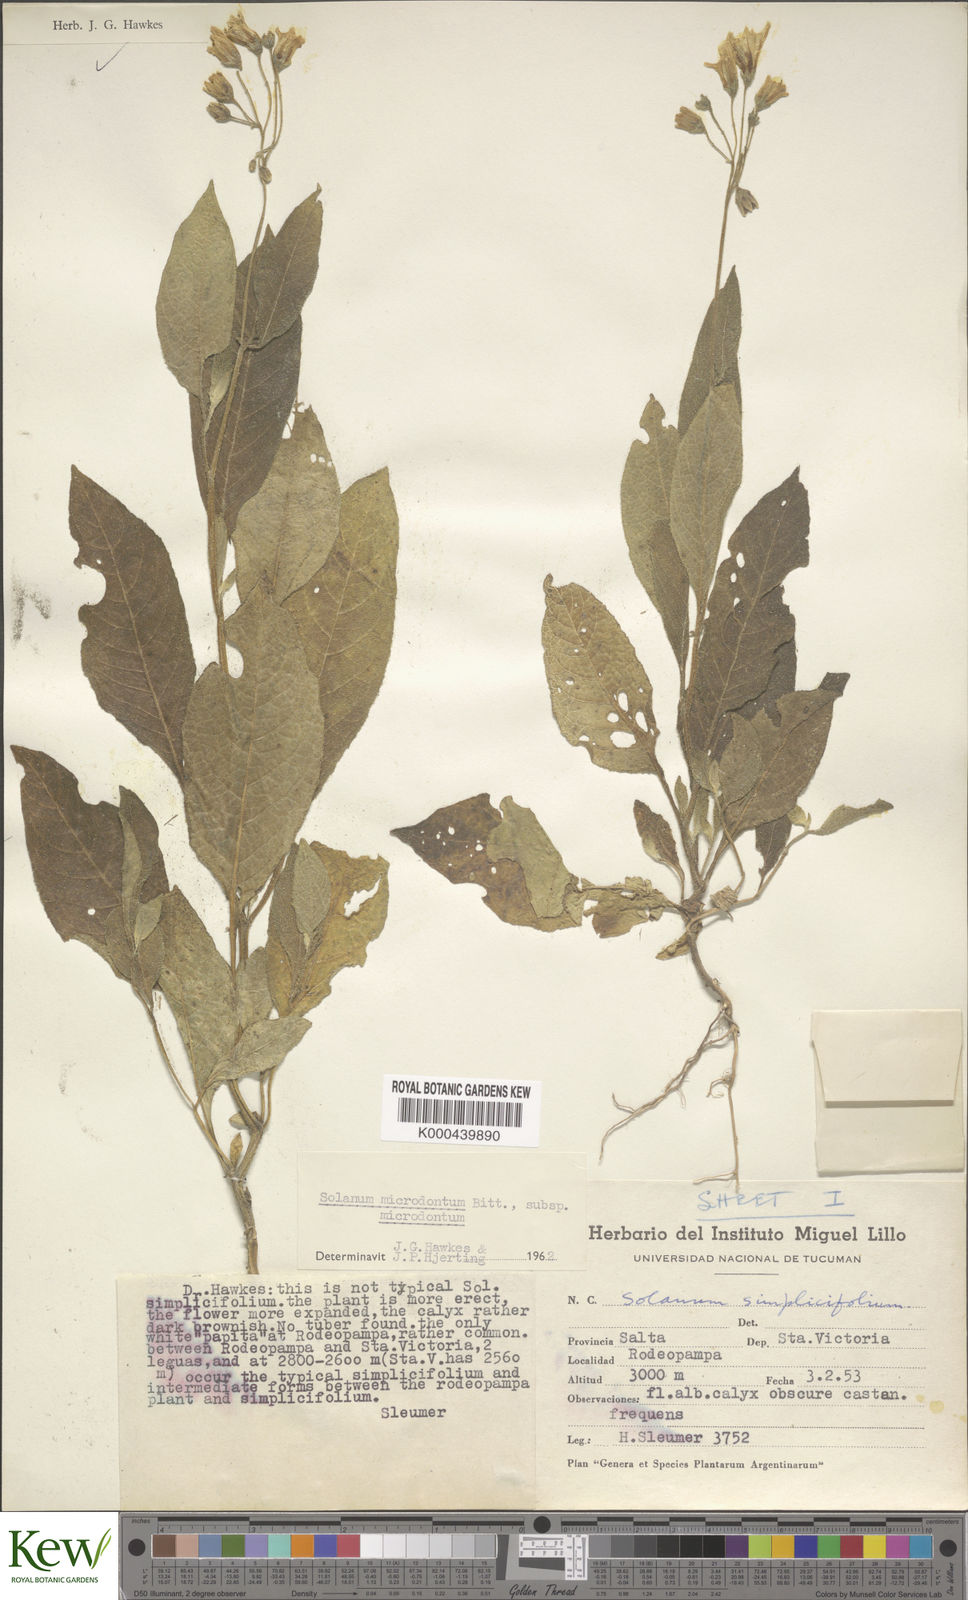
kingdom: Plantae
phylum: Tracheophyta
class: Magnoliopsida
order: Solanales
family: Solanaceae
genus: Solanum
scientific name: Solanum microdontum
